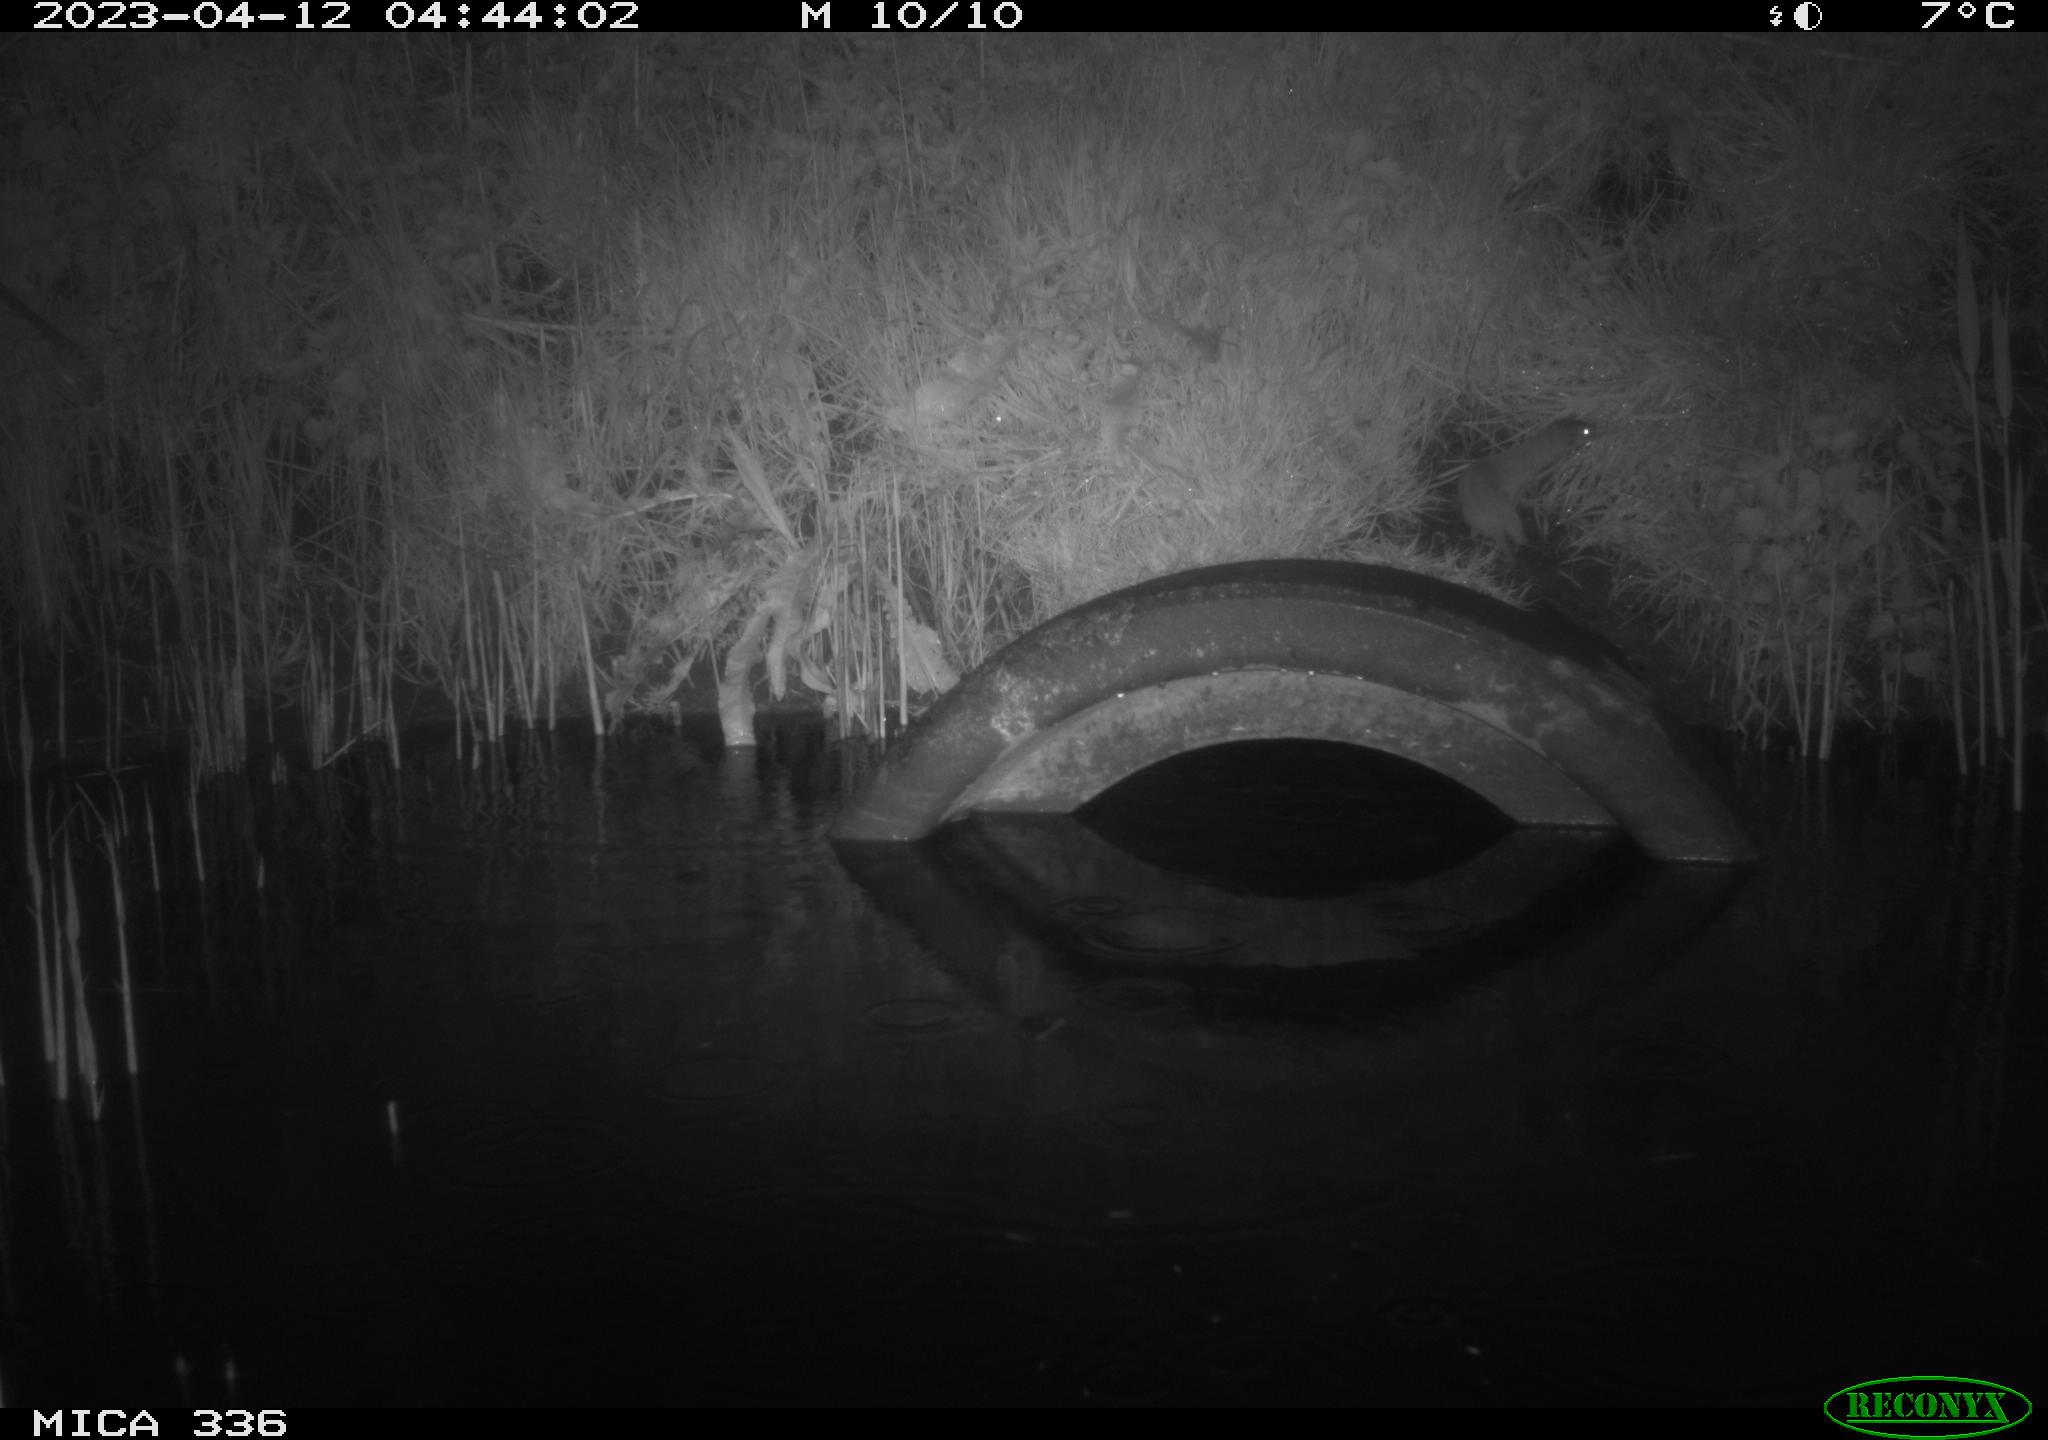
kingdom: Animalia
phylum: Chordata
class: Mammalia
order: Carnivora
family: Mustelidae
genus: Mustela
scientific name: Mustela nivalis
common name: Least weasel
